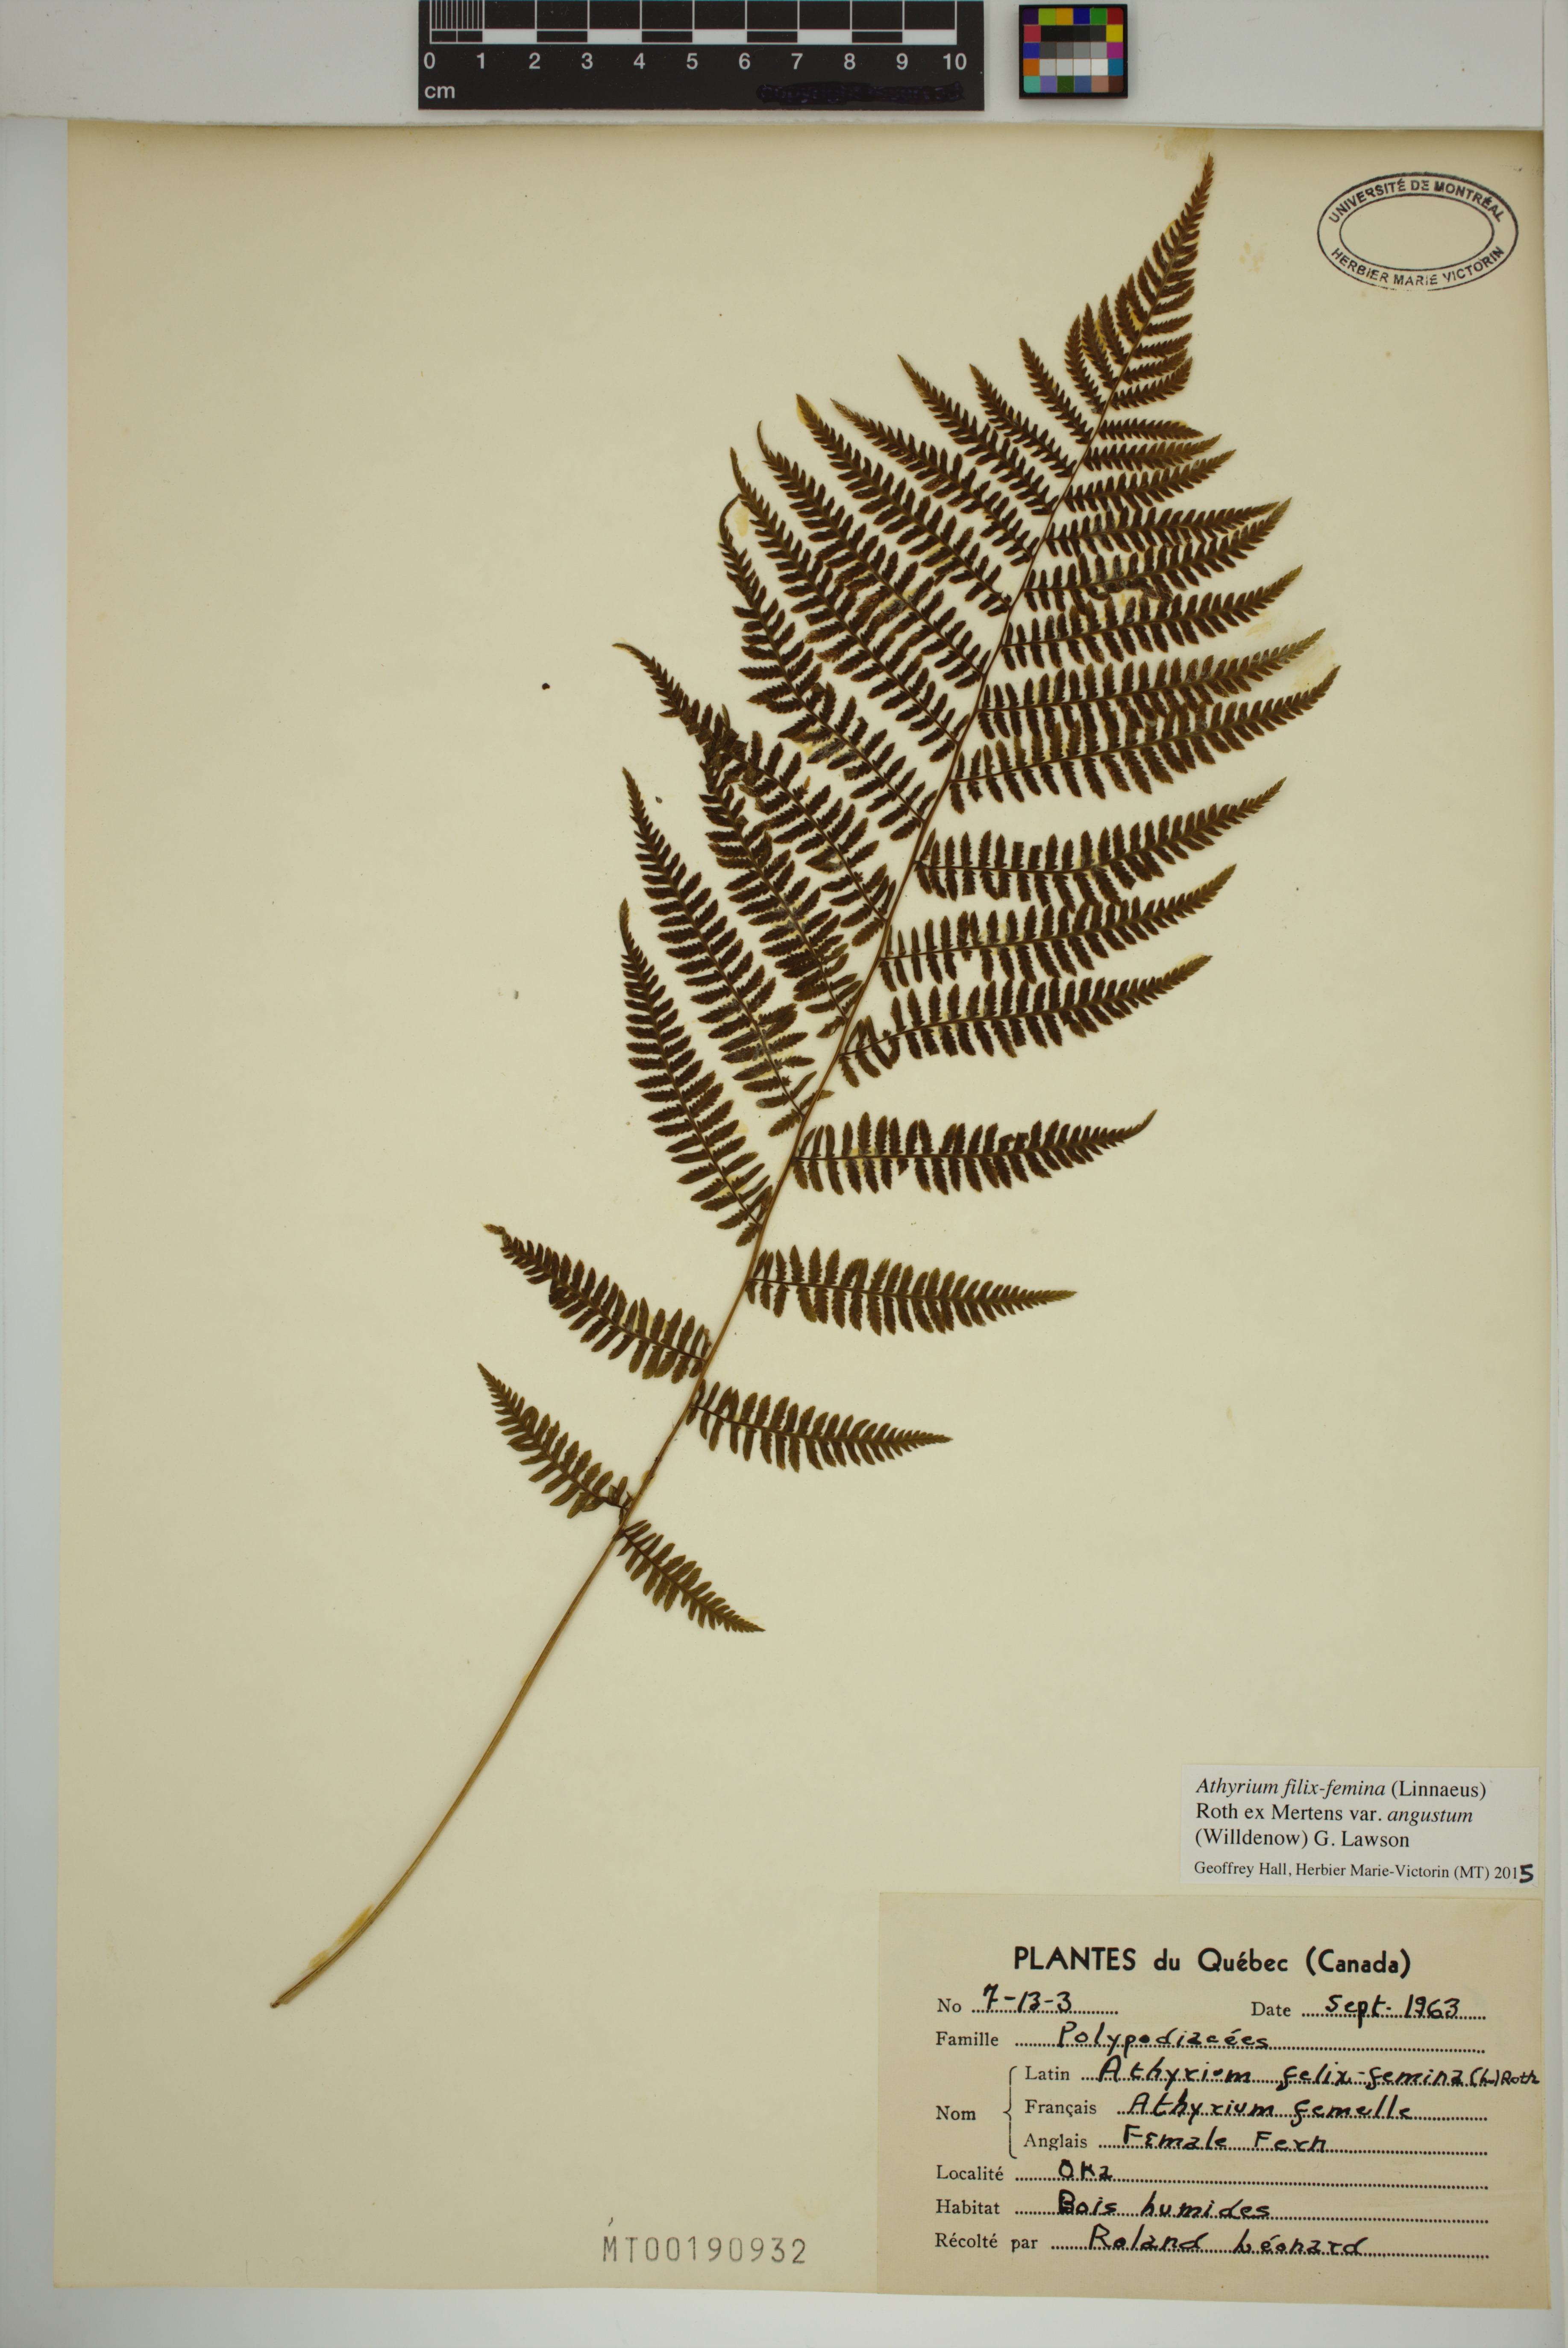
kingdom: Plantae
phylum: Tracheophyta
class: Polypodiopsida
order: Polypodiales
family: Athyriaceae
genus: Athyrium
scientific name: Athyrium angustum
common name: Northern lady fern
